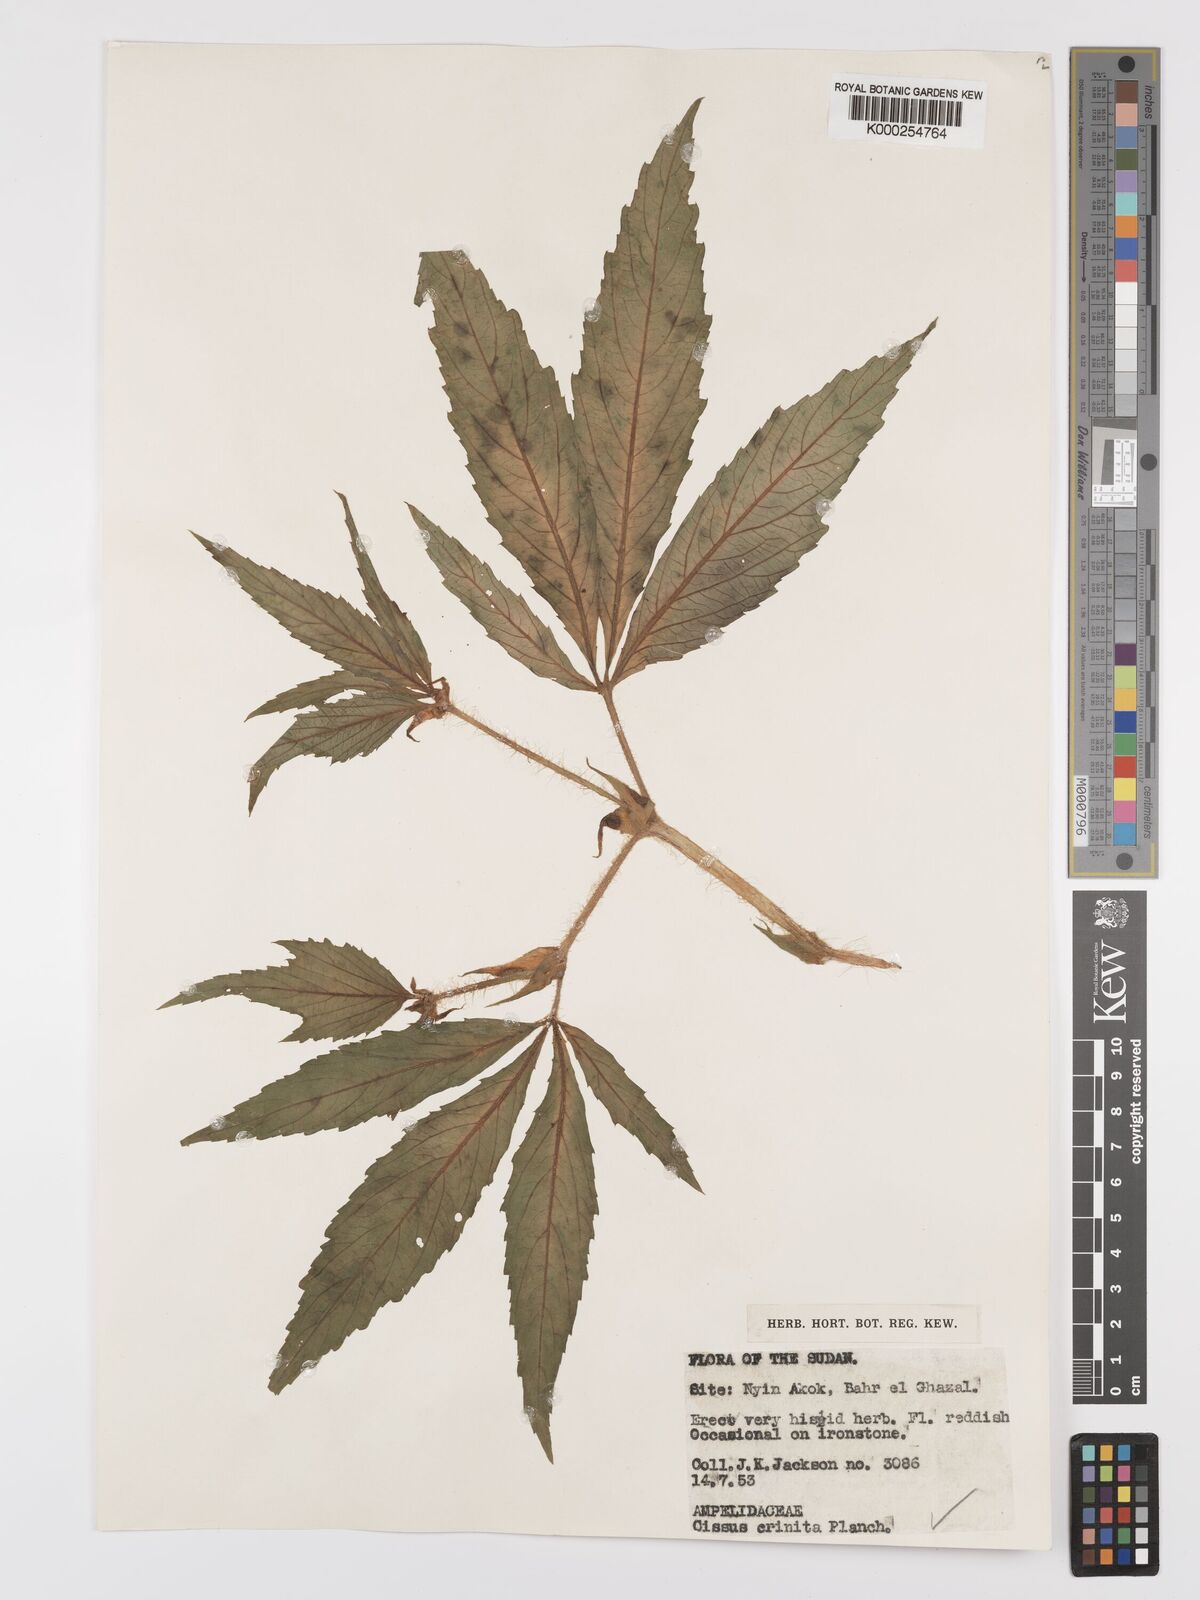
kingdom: Plantae
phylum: Tracheophyta
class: Magnoliopsida
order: Vitales
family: Vitaceae
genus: Cyphostemma
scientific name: Cyphostemma crinitum
